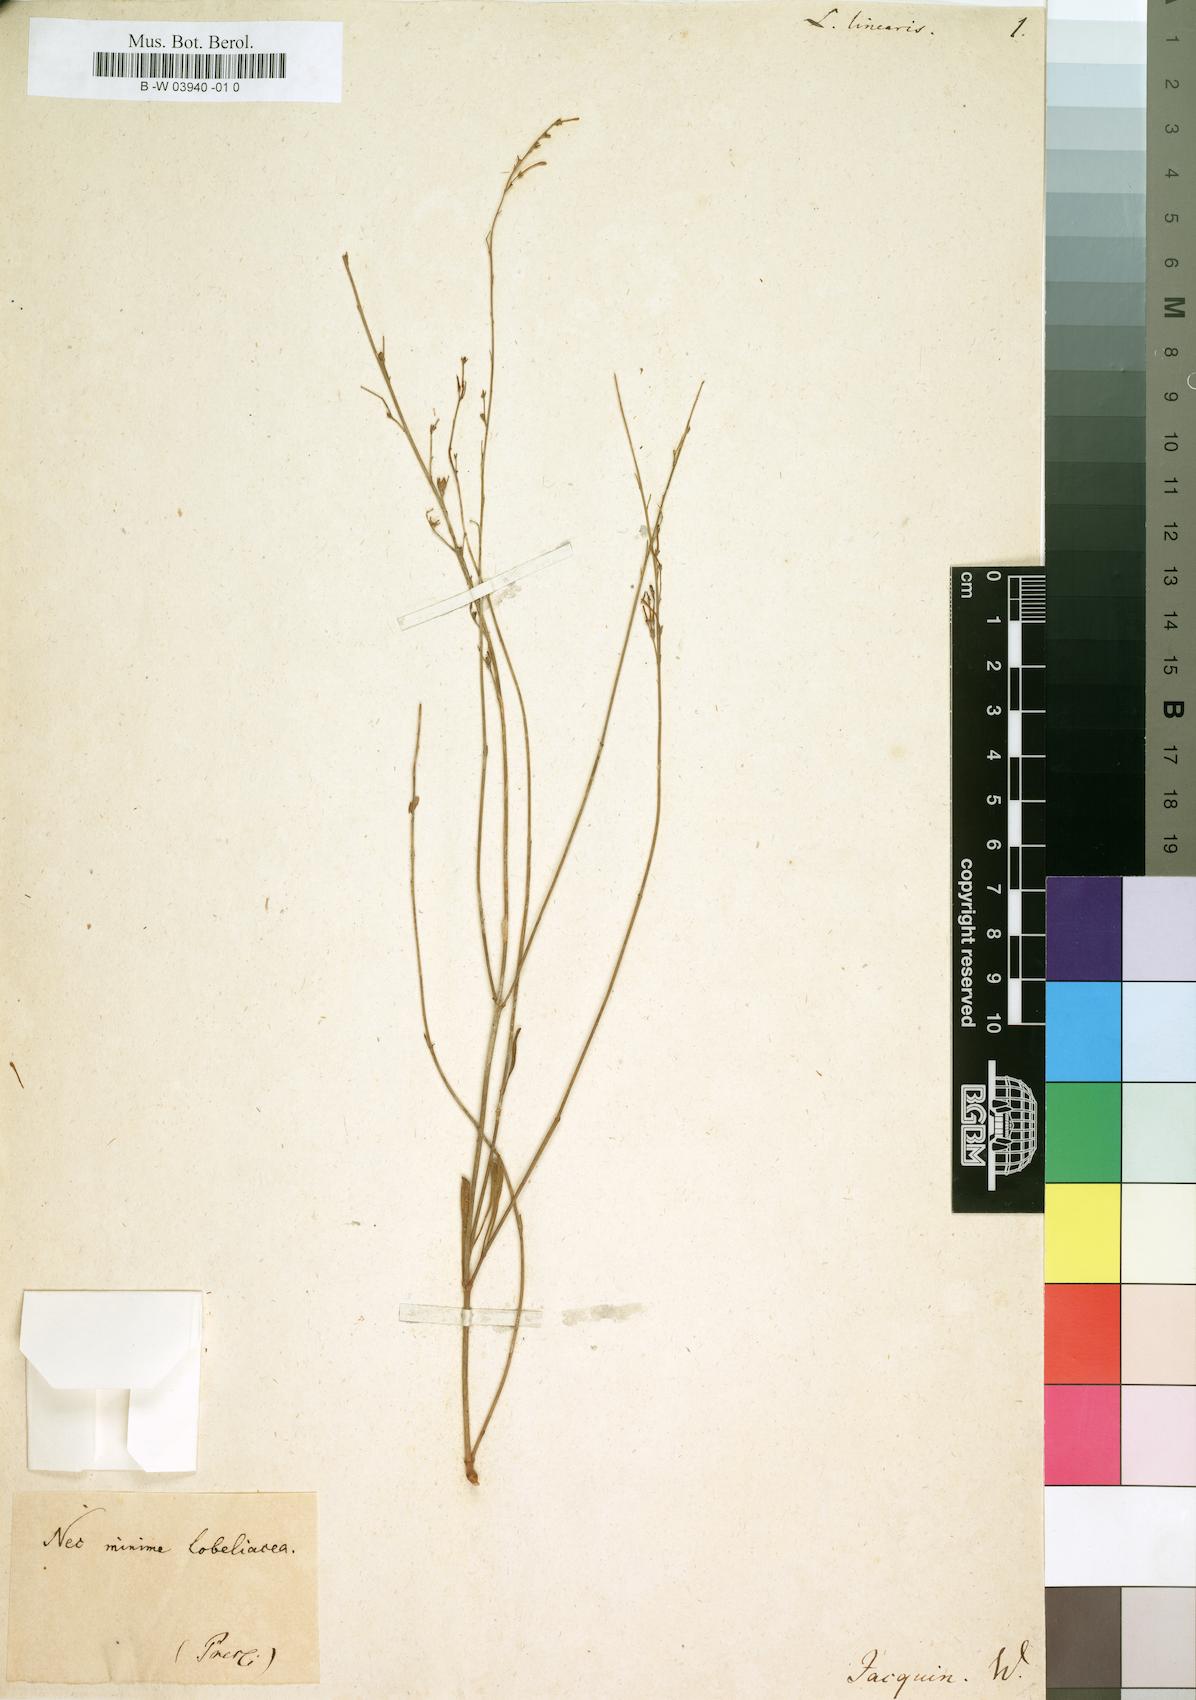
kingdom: Plantae
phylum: Tracheophyta
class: Magnoliopsida
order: Asterales
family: Campanulaceae
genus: Lobelia
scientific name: Lobelia linearis
